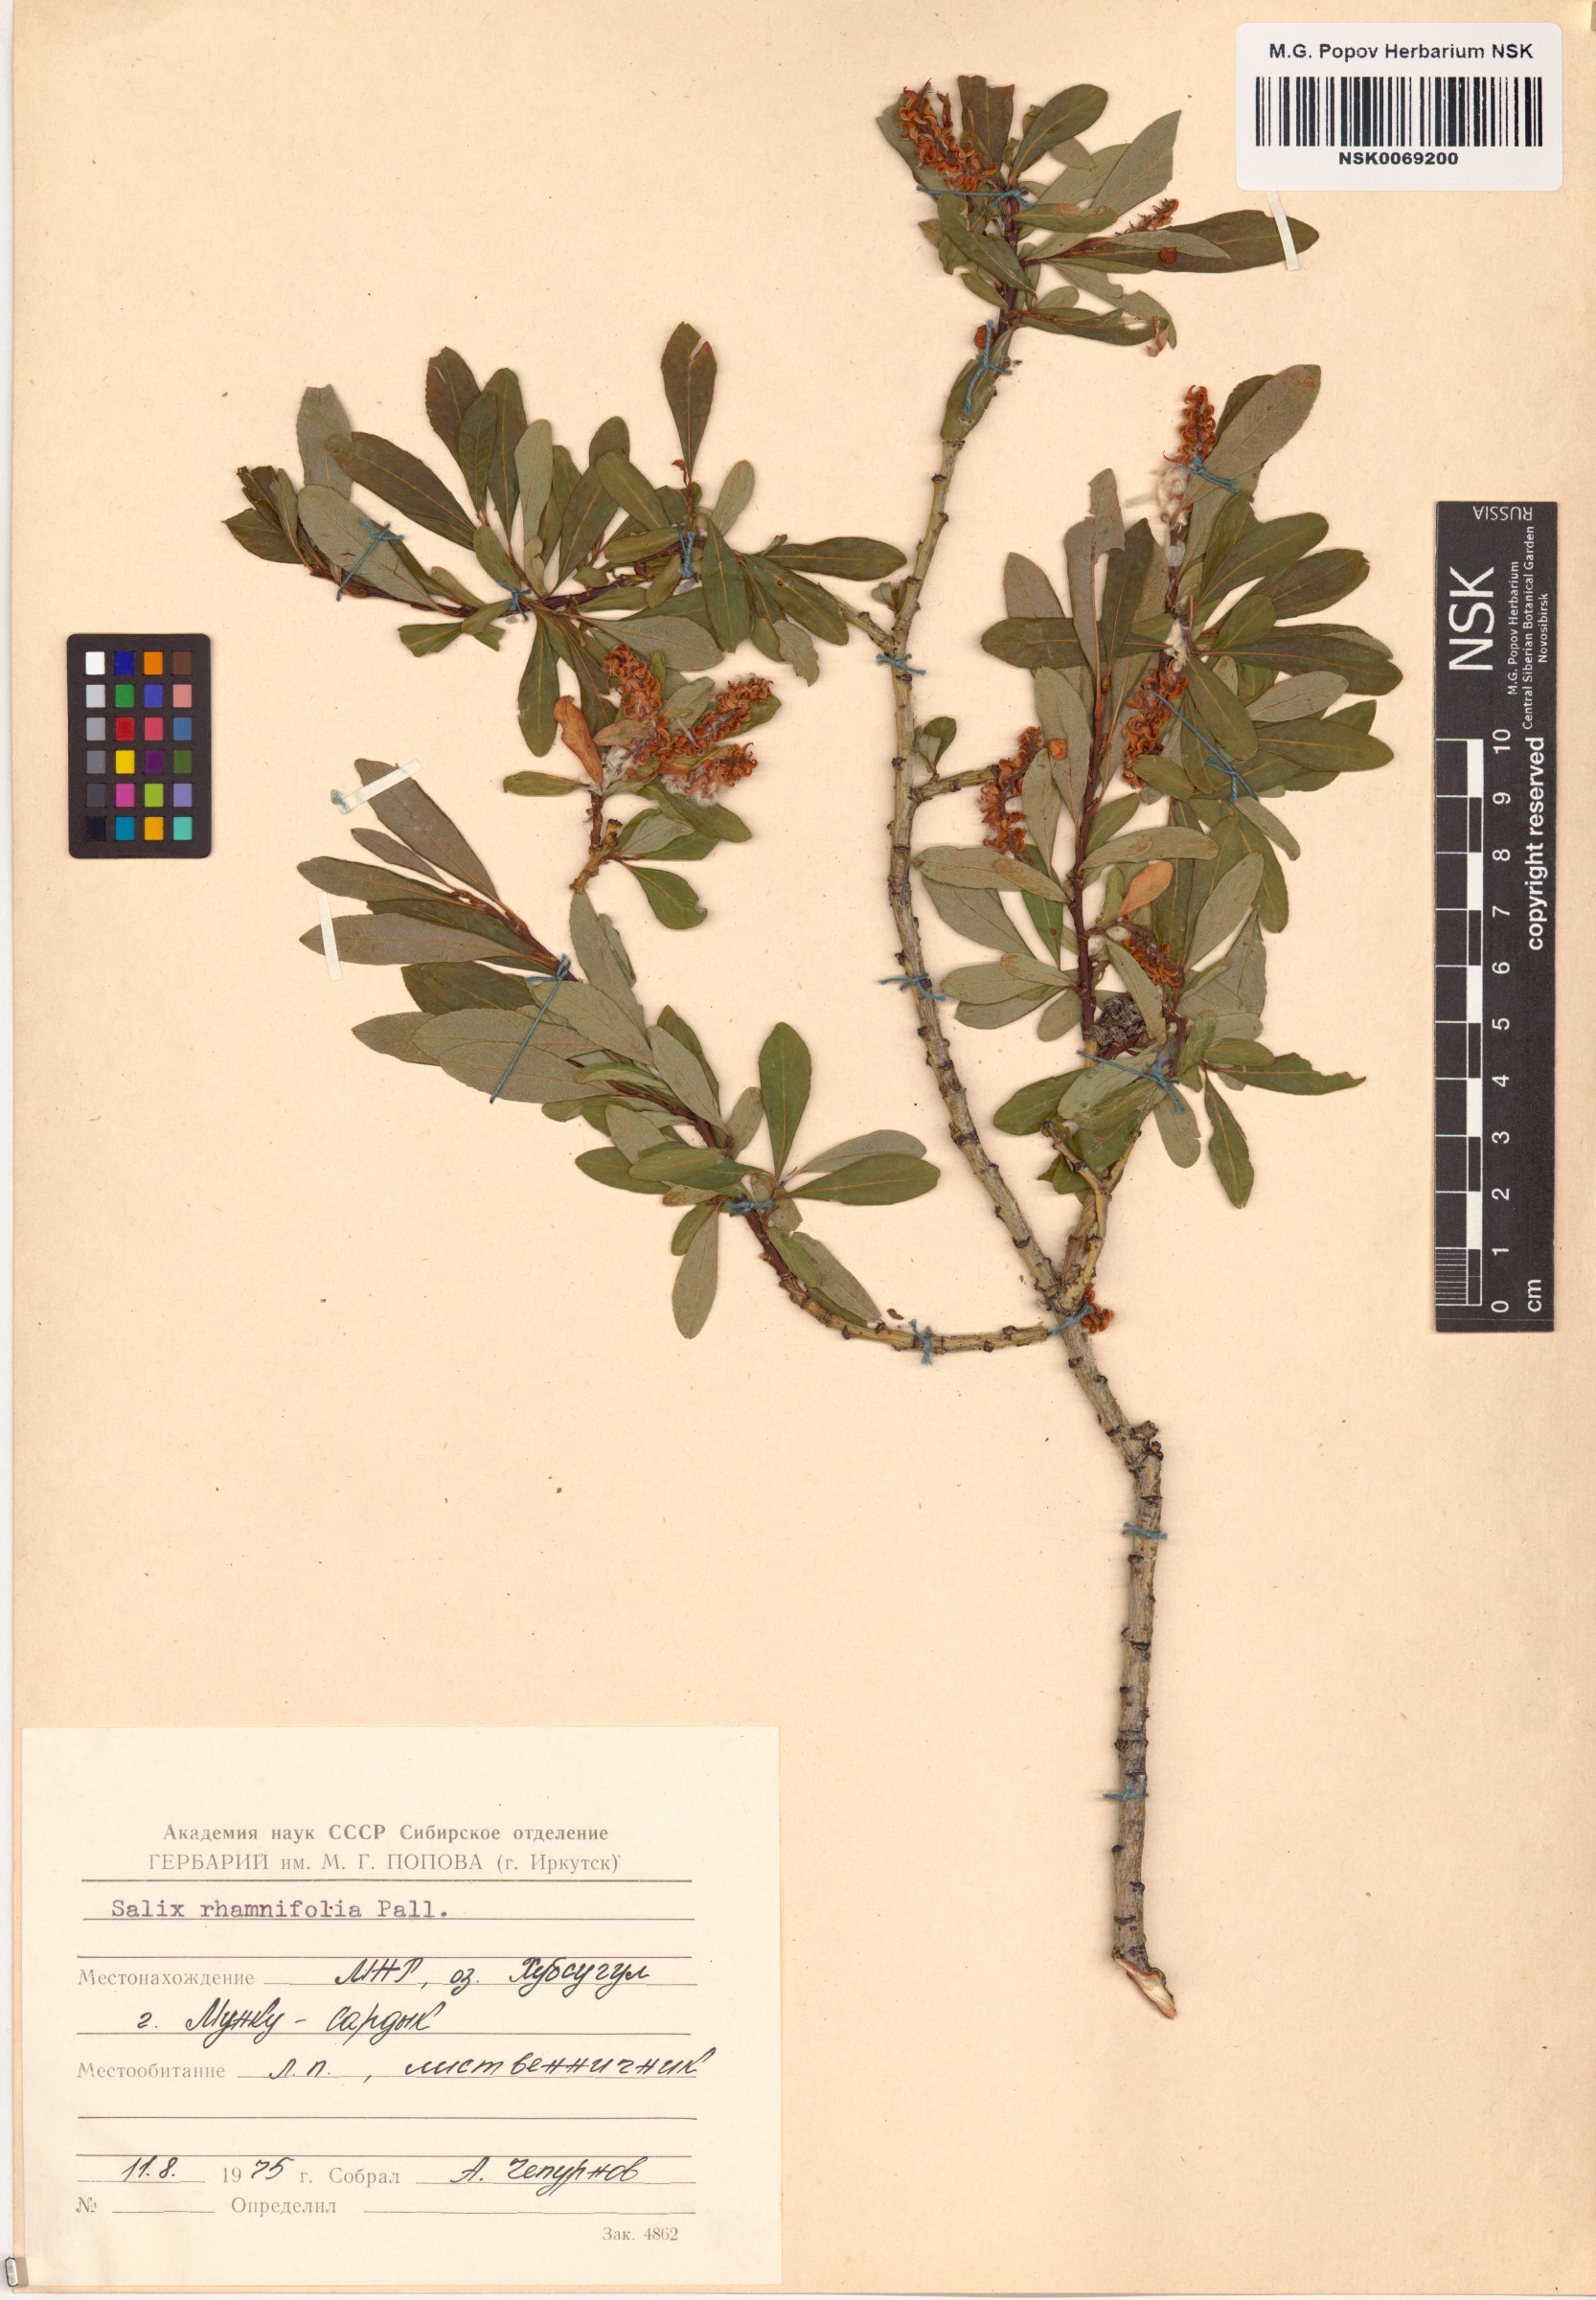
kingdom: Plantae
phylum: Tracheophyta
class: Magnoliopsida
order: Malpighiales
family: Salicaceae
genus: Salix
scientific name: Salix rhamnifolia
